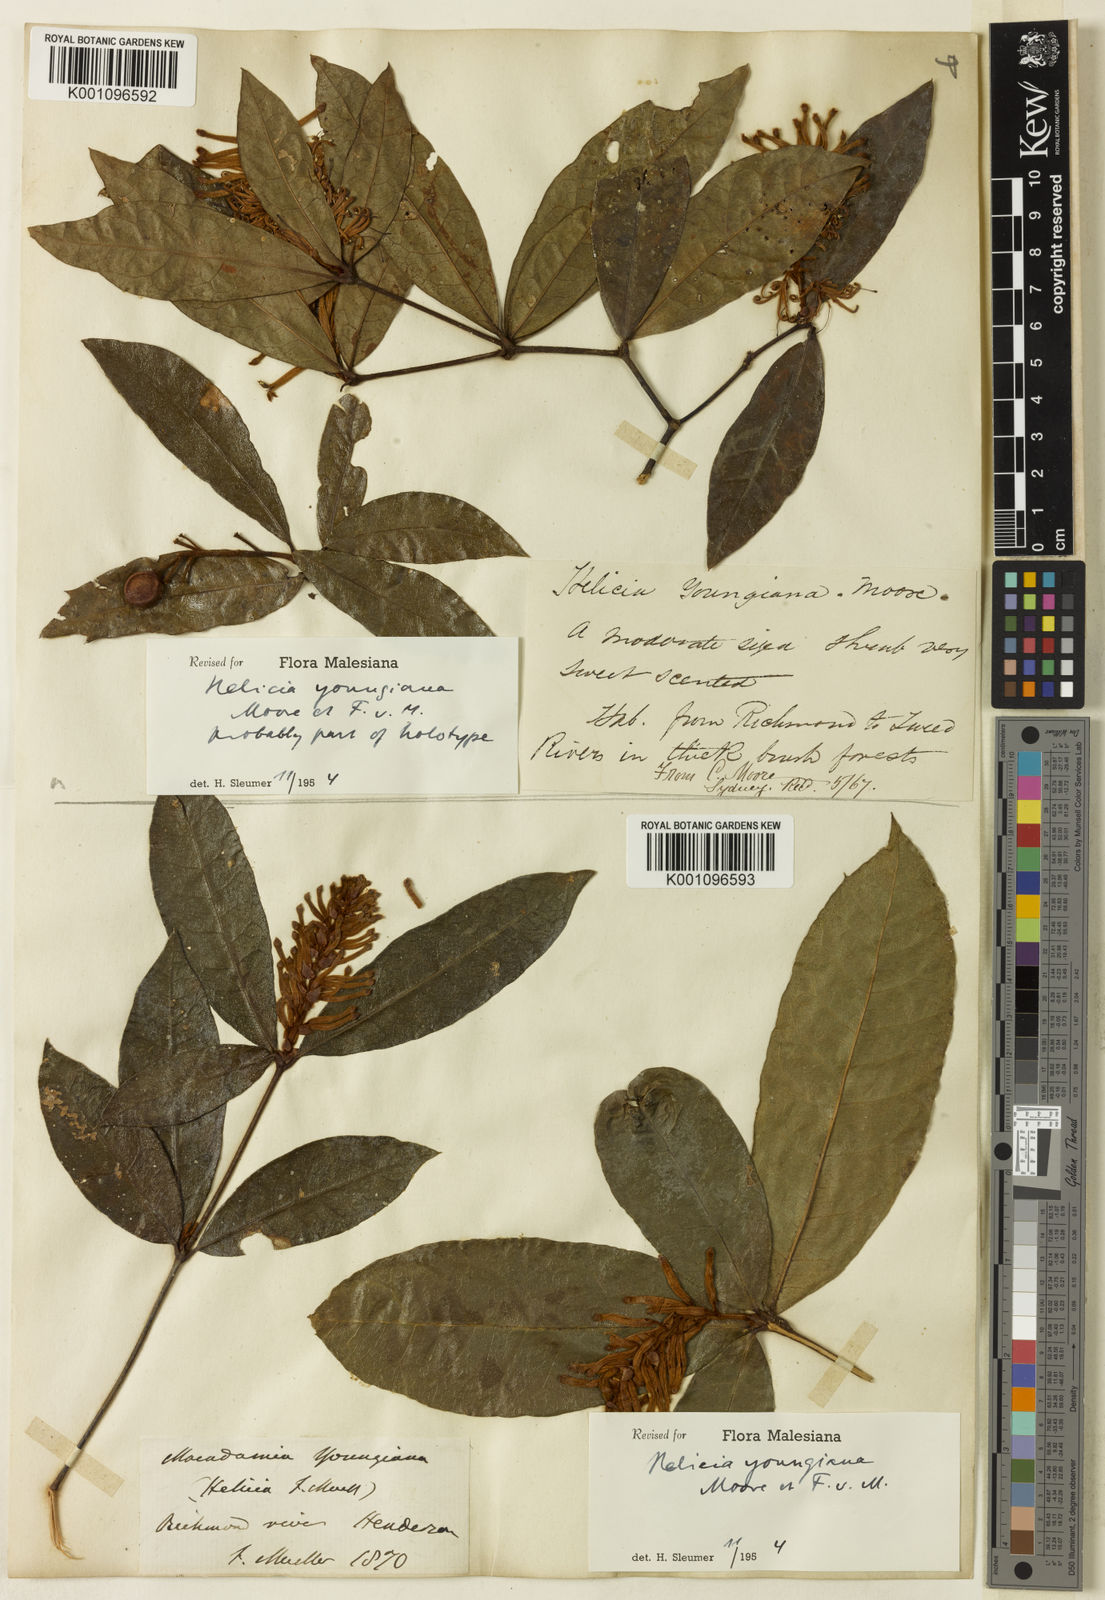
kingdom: Plantae
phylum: Tracheophyta
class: Magnoliopsida
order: Proteales
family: Proteaceae
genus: Triunia
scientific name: Triunia youngiana
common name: Rednut
